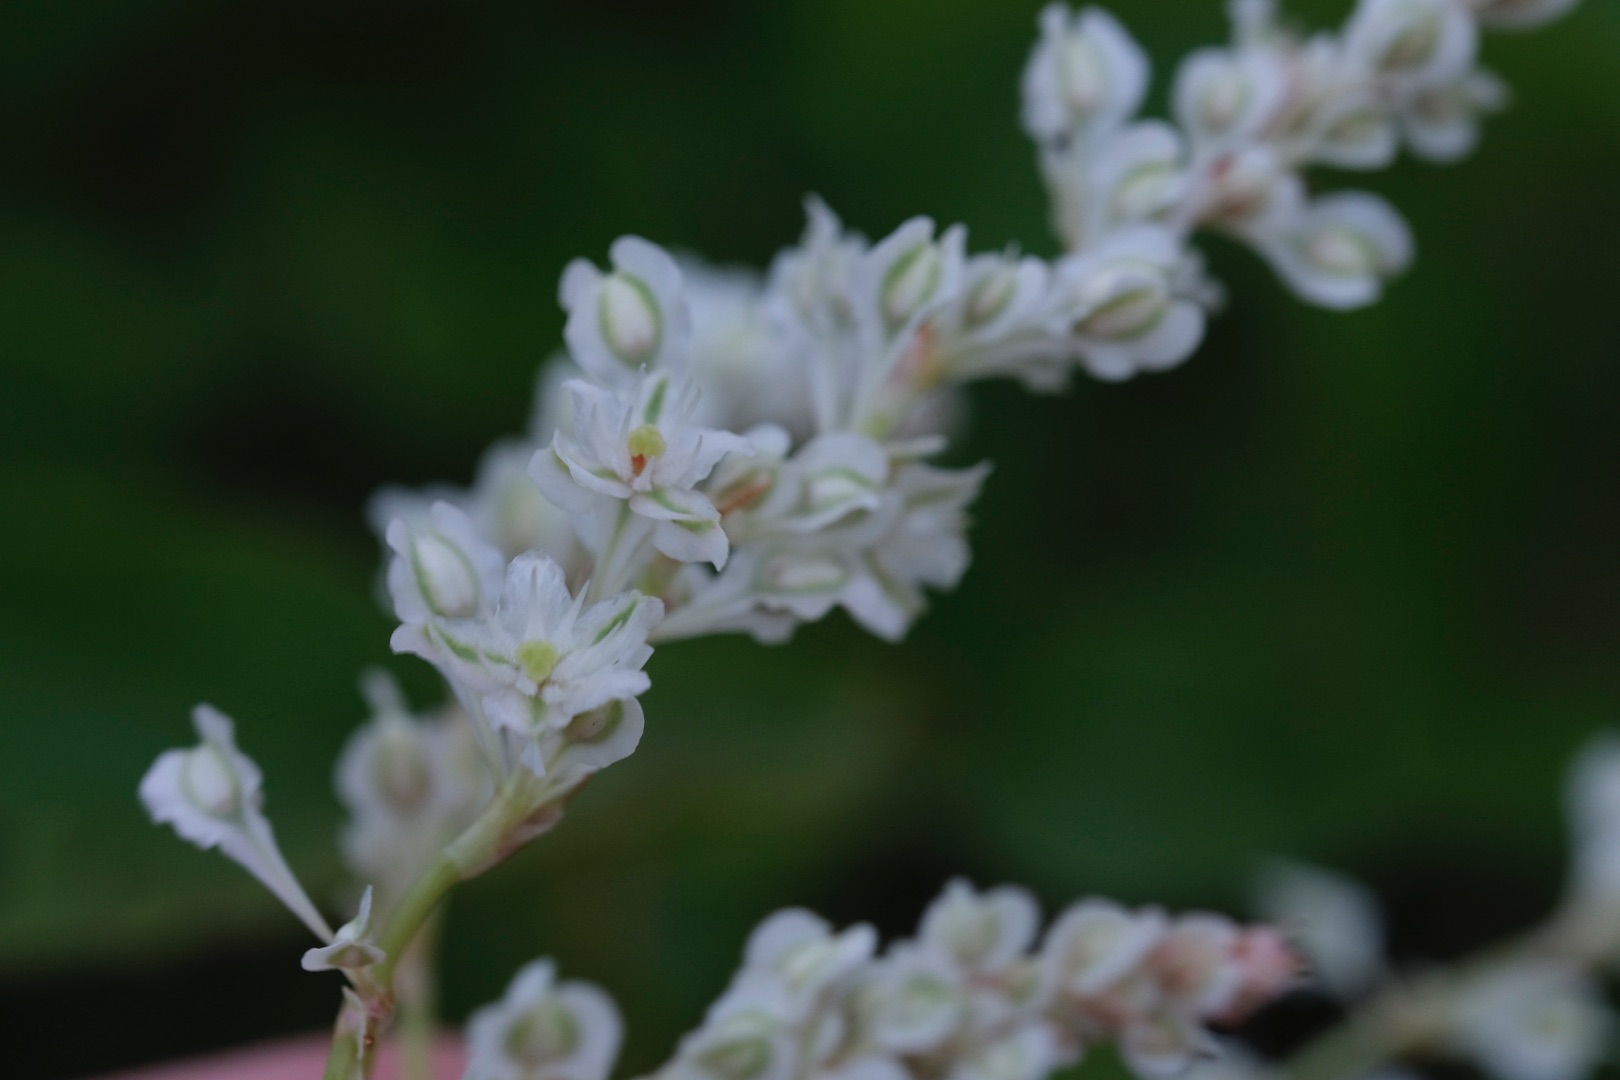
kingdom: Plantae
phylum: Tracheophyta
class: Magnoliopsida
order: Caryophyllales
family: Polygonaceae
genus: Fallopia
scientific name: Fallopia baldschuanica
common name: Sølvregn
